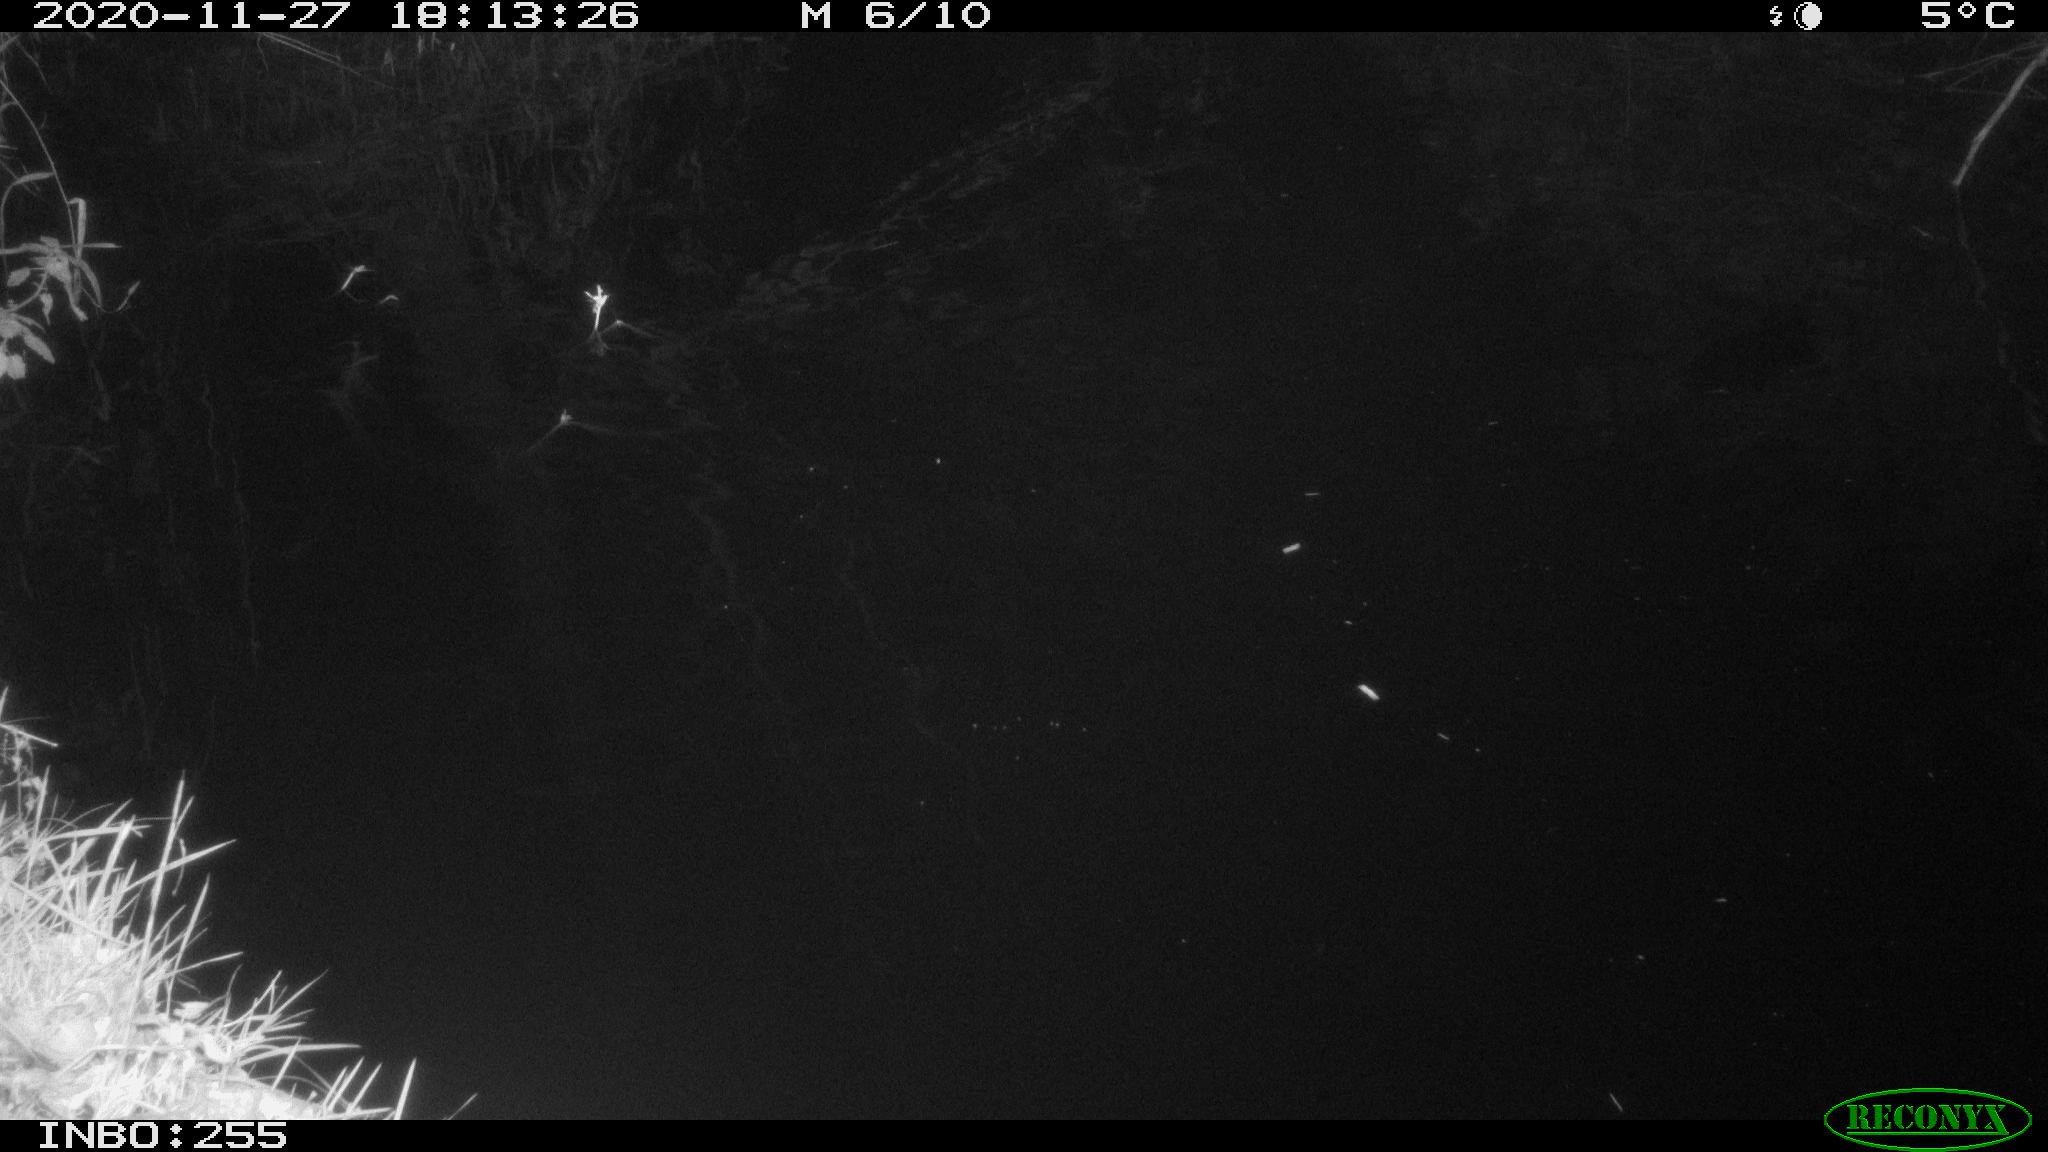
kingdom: Animalia
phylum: Chordata
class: Mammalia
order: Rodentia
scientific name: Rodentia
